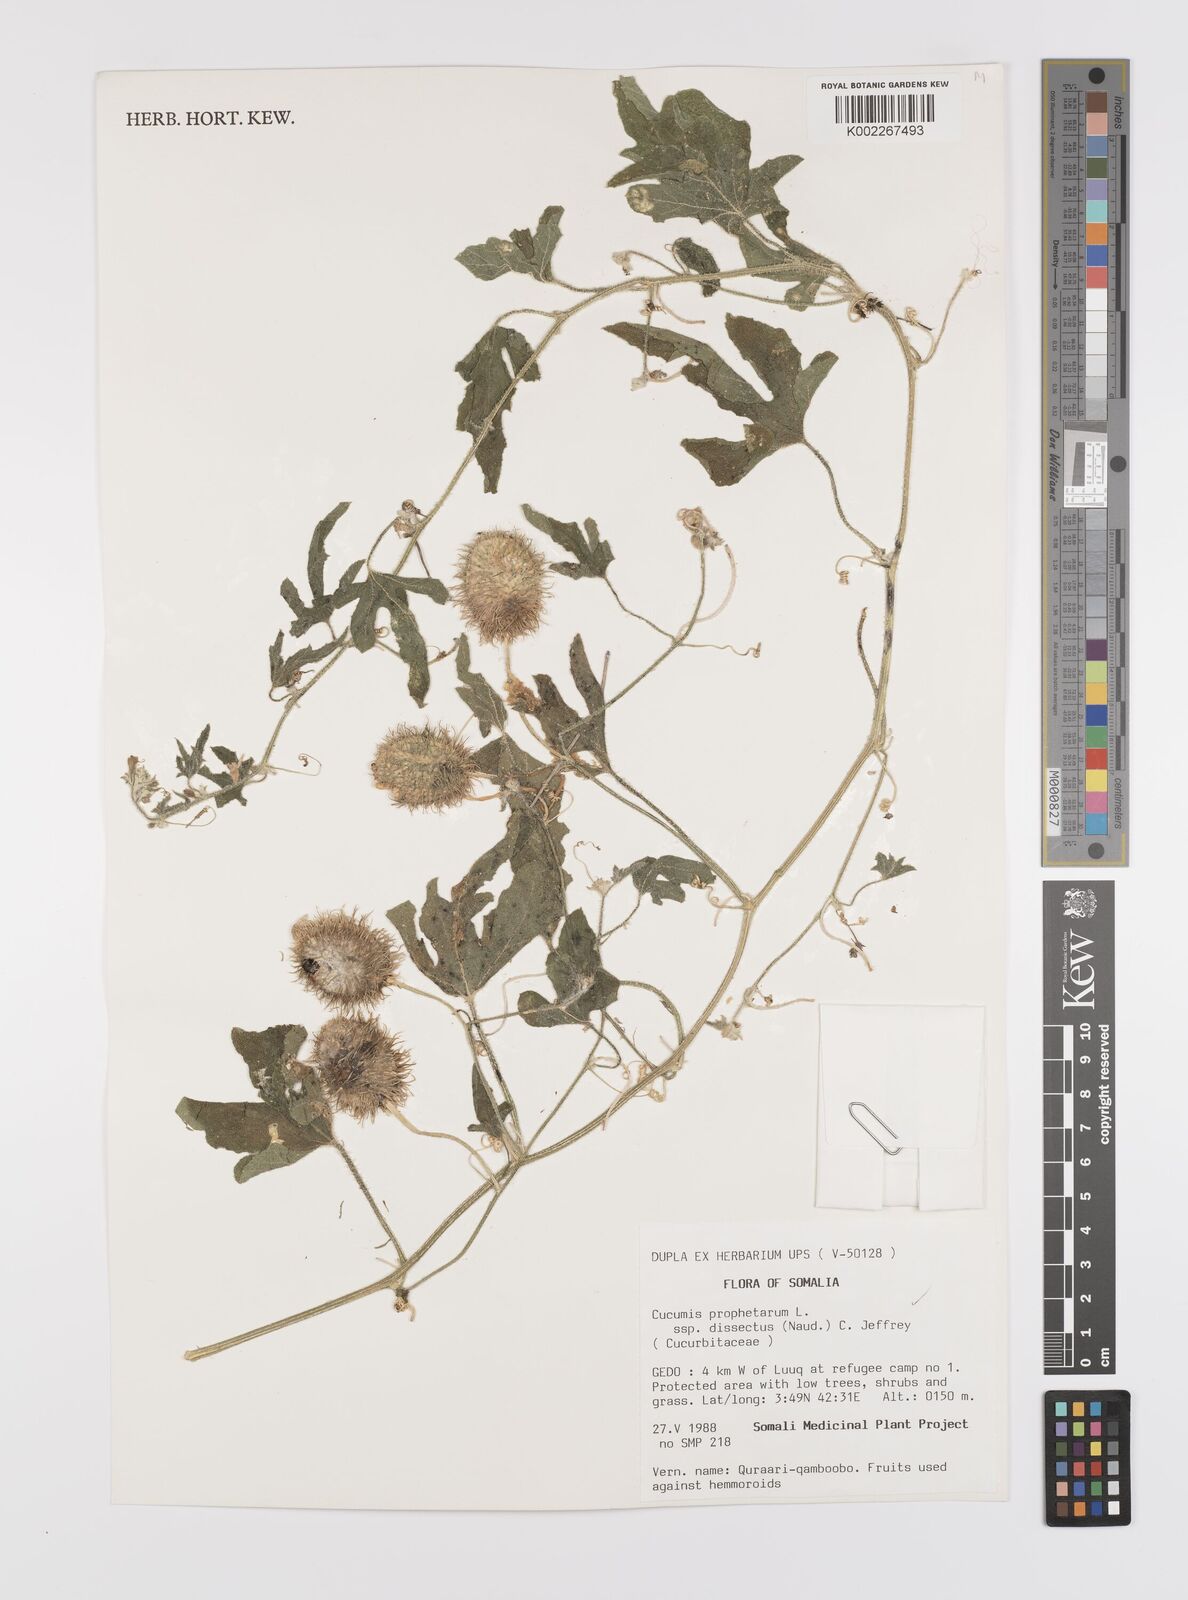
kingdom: Plantae
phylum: Tracheophyta
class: Magnoliopsida
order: Cucurbitales
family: Cucurbitaceae
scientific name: Cucurbitaceae
